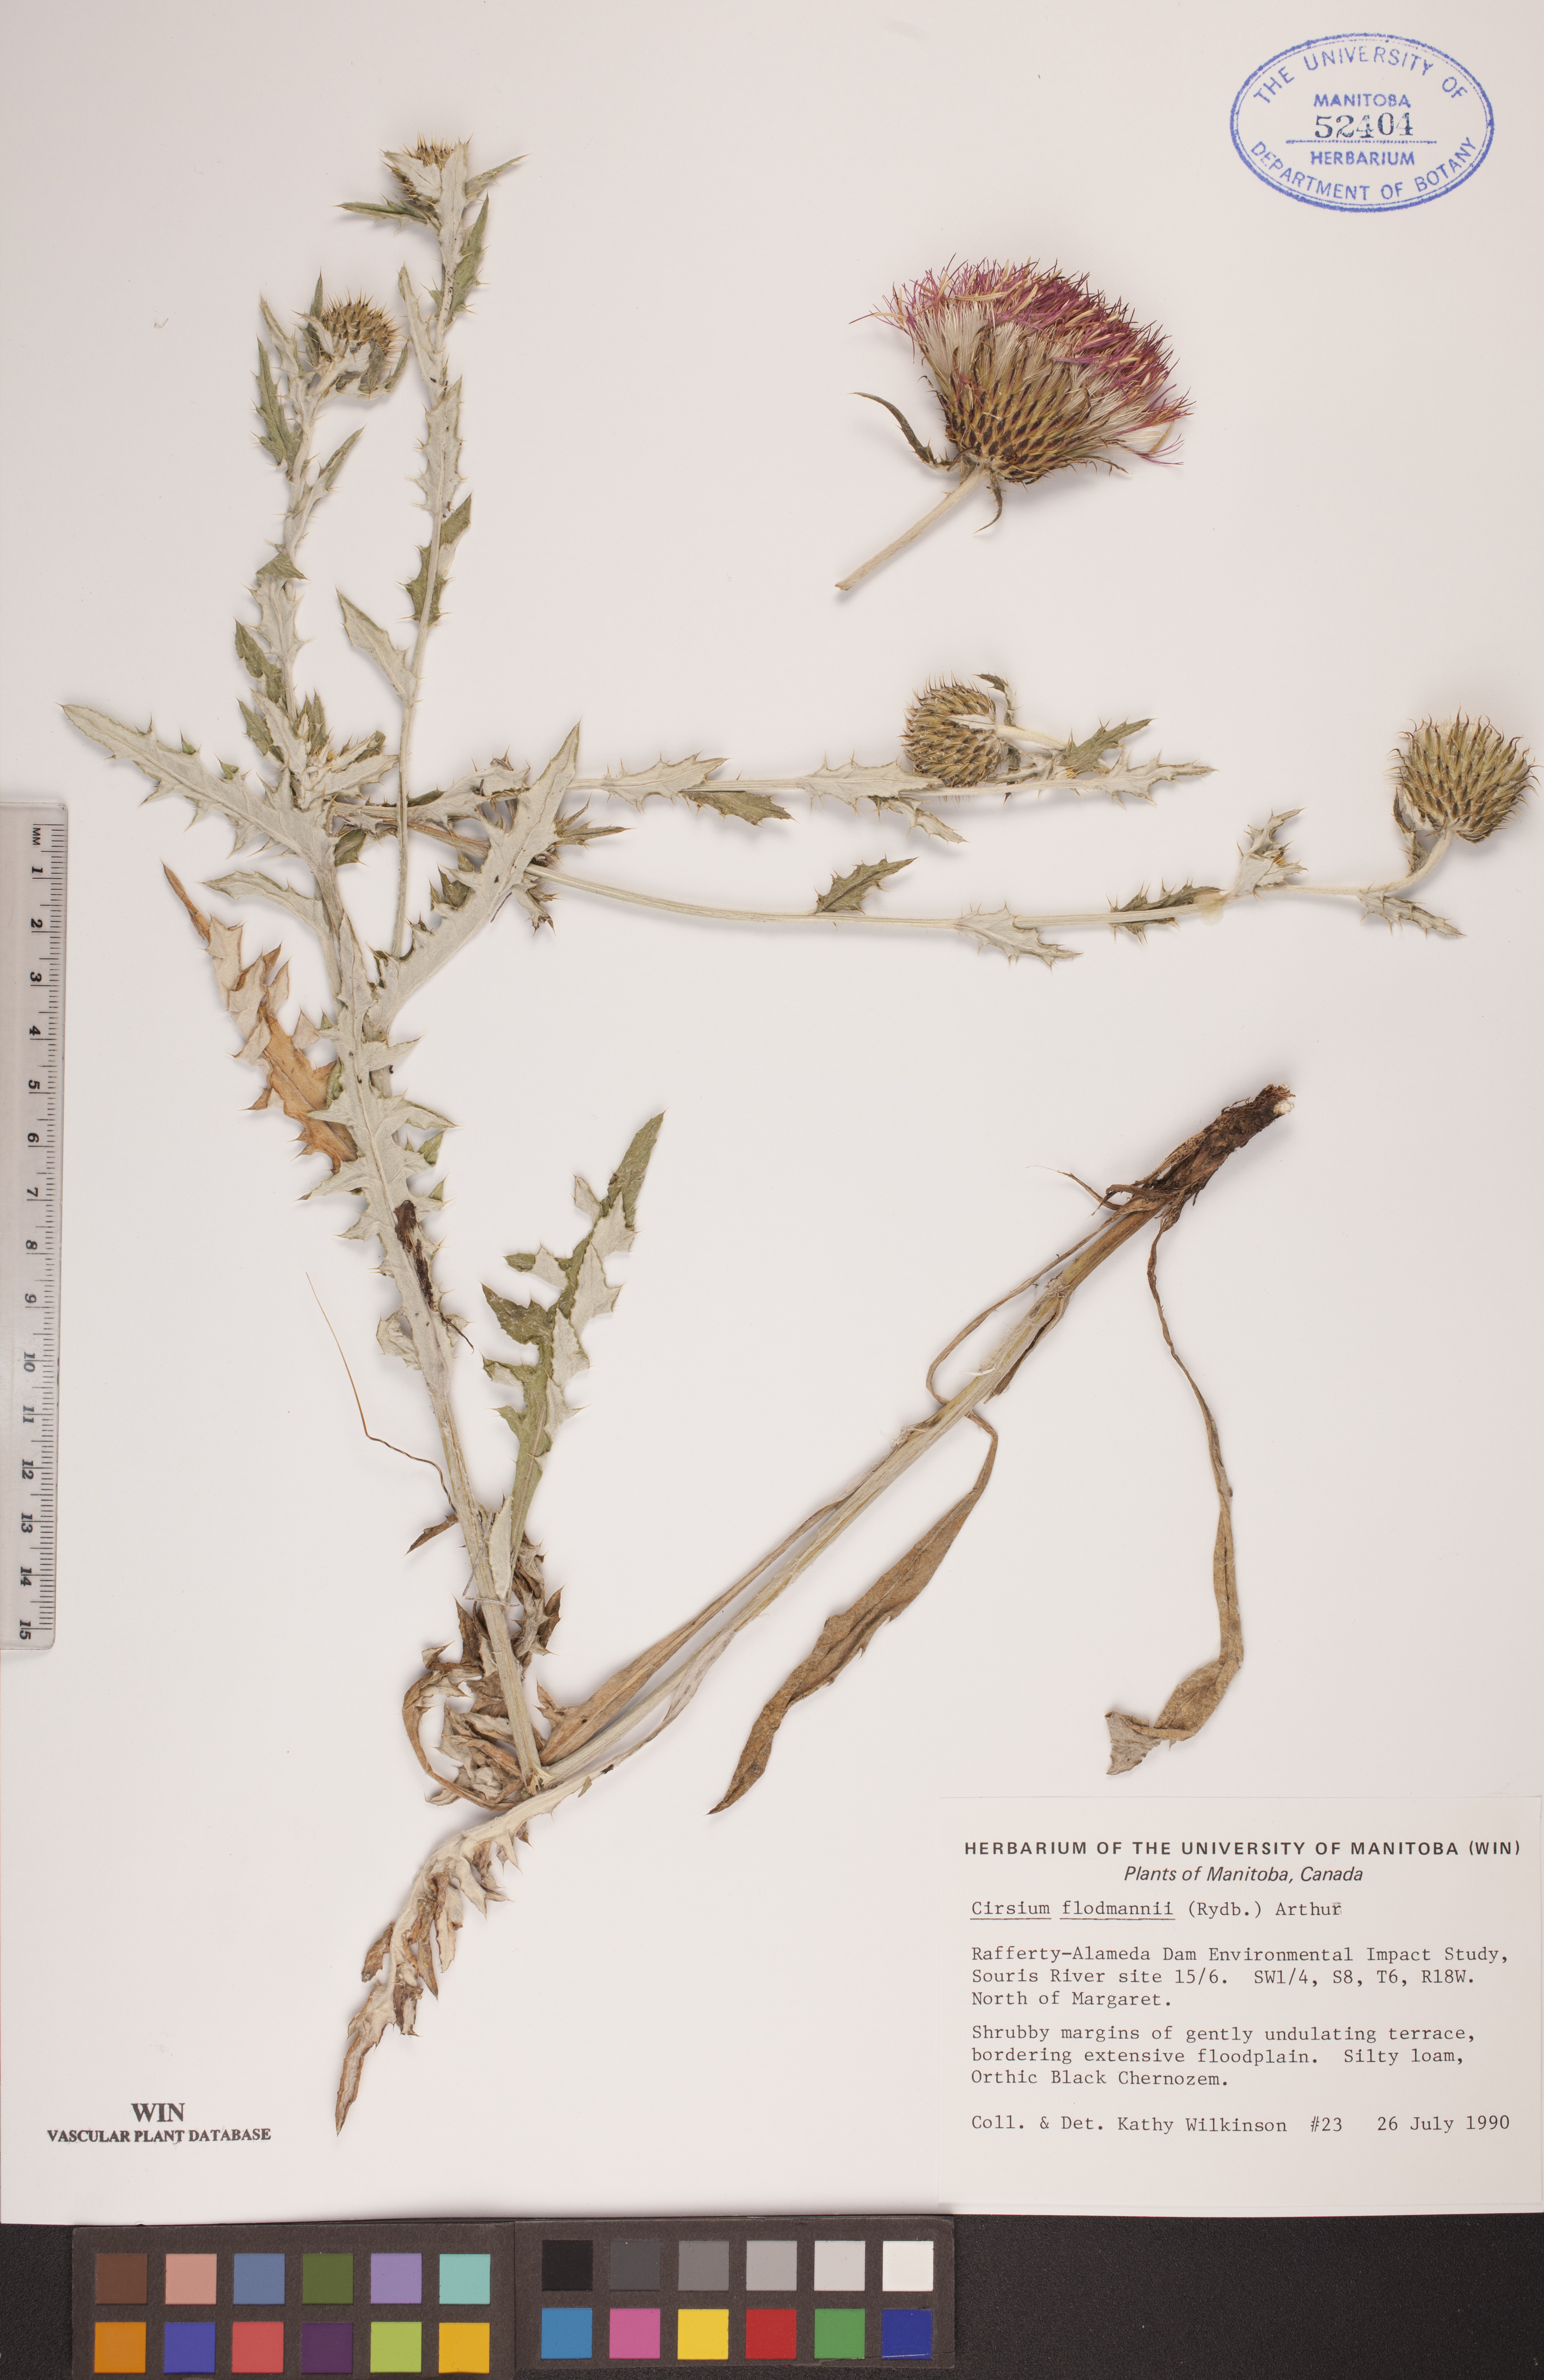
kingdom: Plantae
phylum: Tracheophyta
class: Magnoliopsida
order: Asterales
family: Asteraceae
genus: Cirsium
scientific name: Cirsium flodmanii
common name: Flodman's thistle
